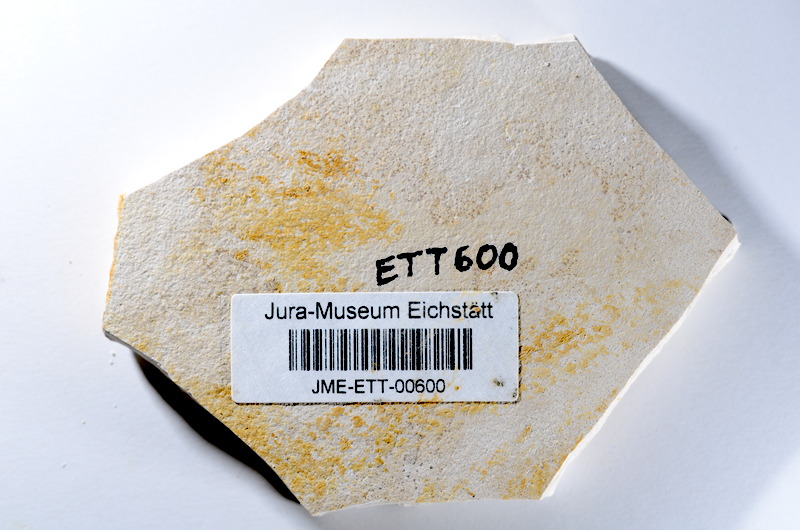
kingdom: Animalia
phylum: Chordata
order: Salmoniformes
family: Orthogonikleithridae
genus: Orthogonikleithrus
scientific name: Orthogonikleithrus hoelli
